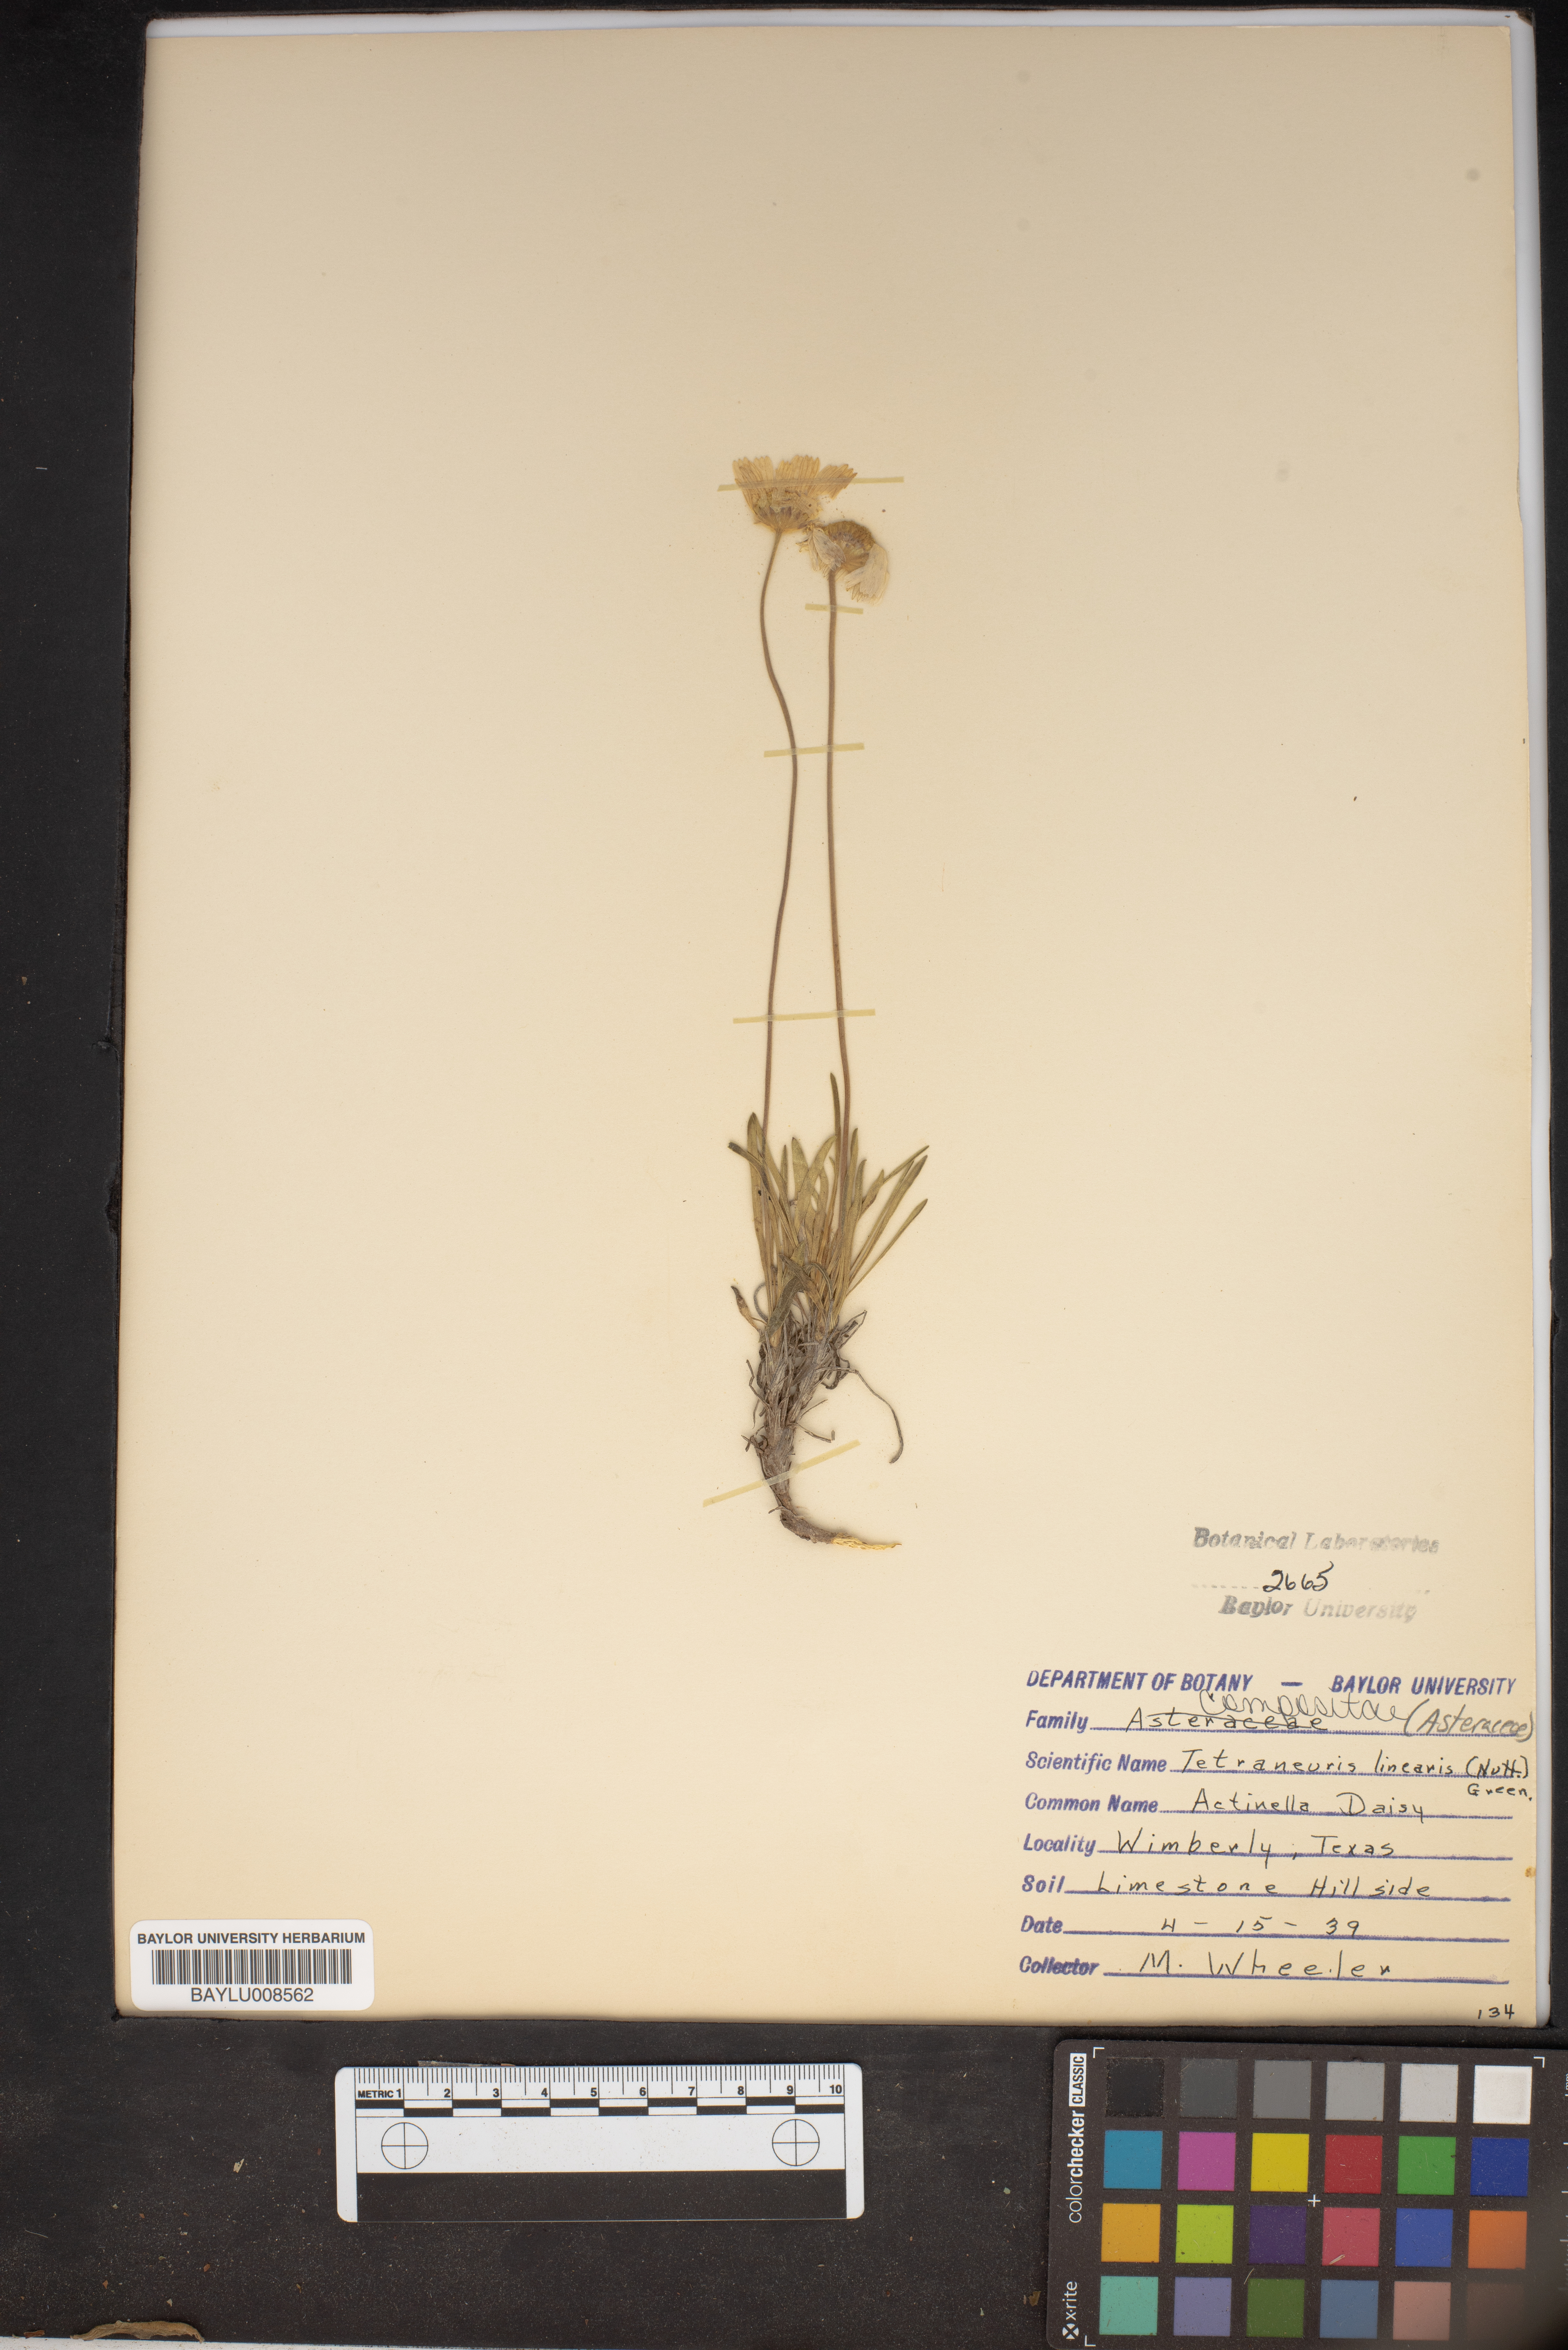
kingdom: Plantae
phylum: Tracheophyta
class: Magnoliopsida
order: Asterales
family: Asteraceae
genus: Tetraneuris
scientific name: Tetraneuris scaposa
